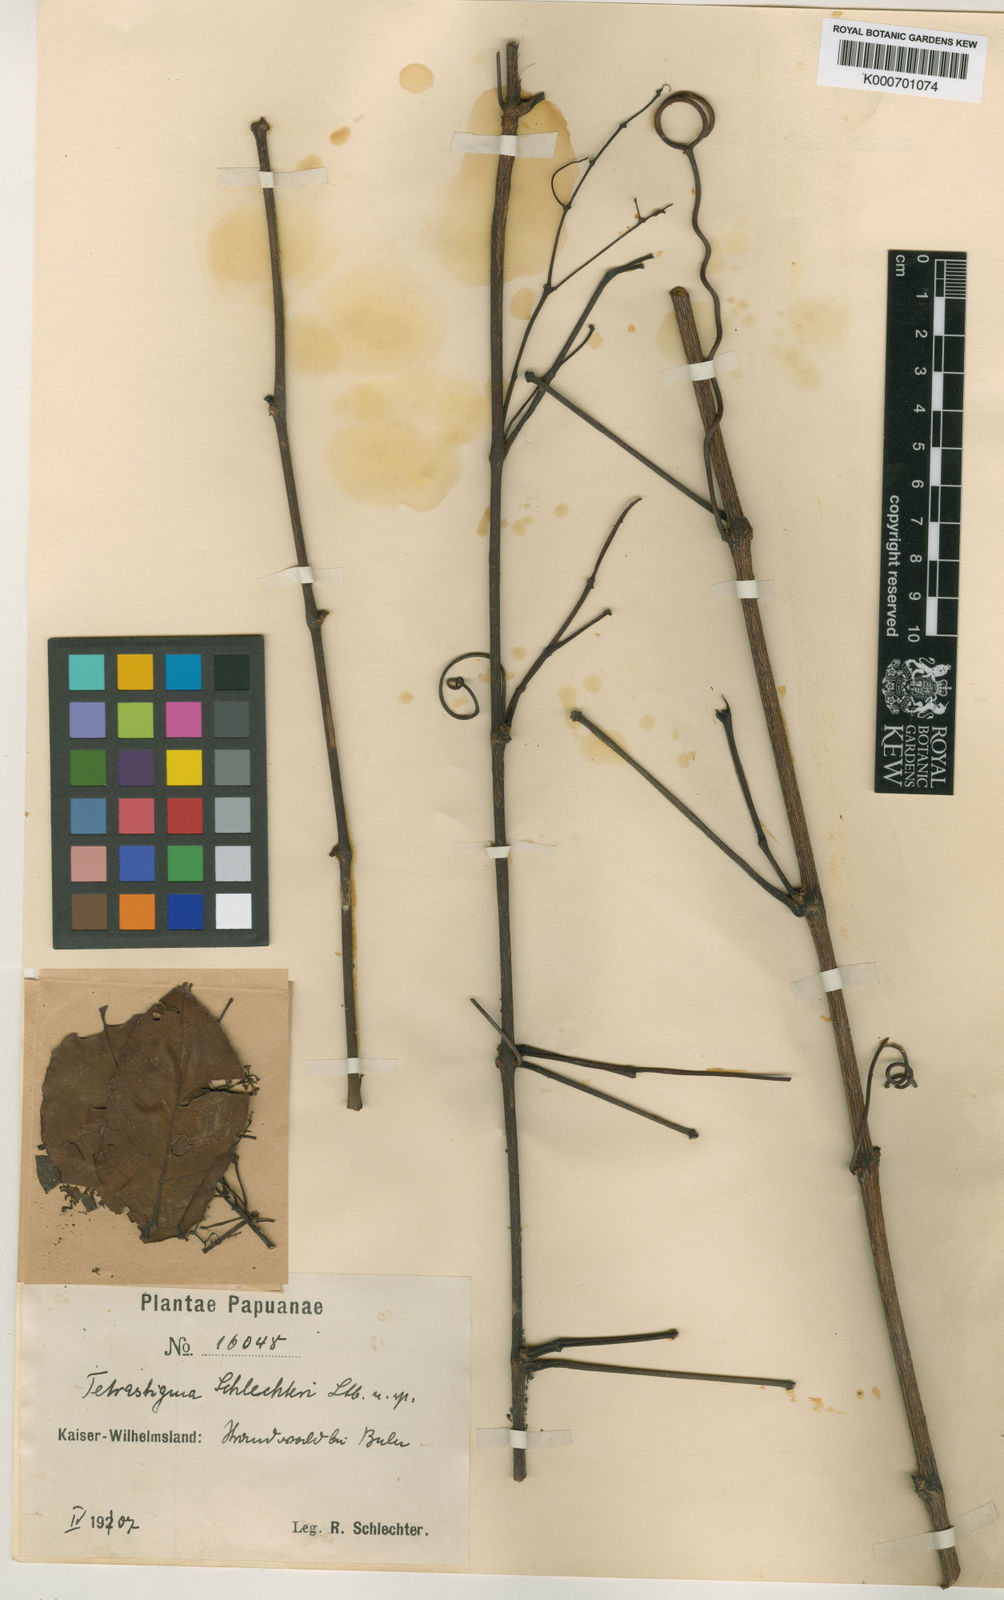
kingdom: Plantae
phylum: Tracheophyta
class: Magnoliopsida
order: Vitales
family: Vitaceae
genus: Tetrastigma
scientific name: Tetrastigma schlechteri
